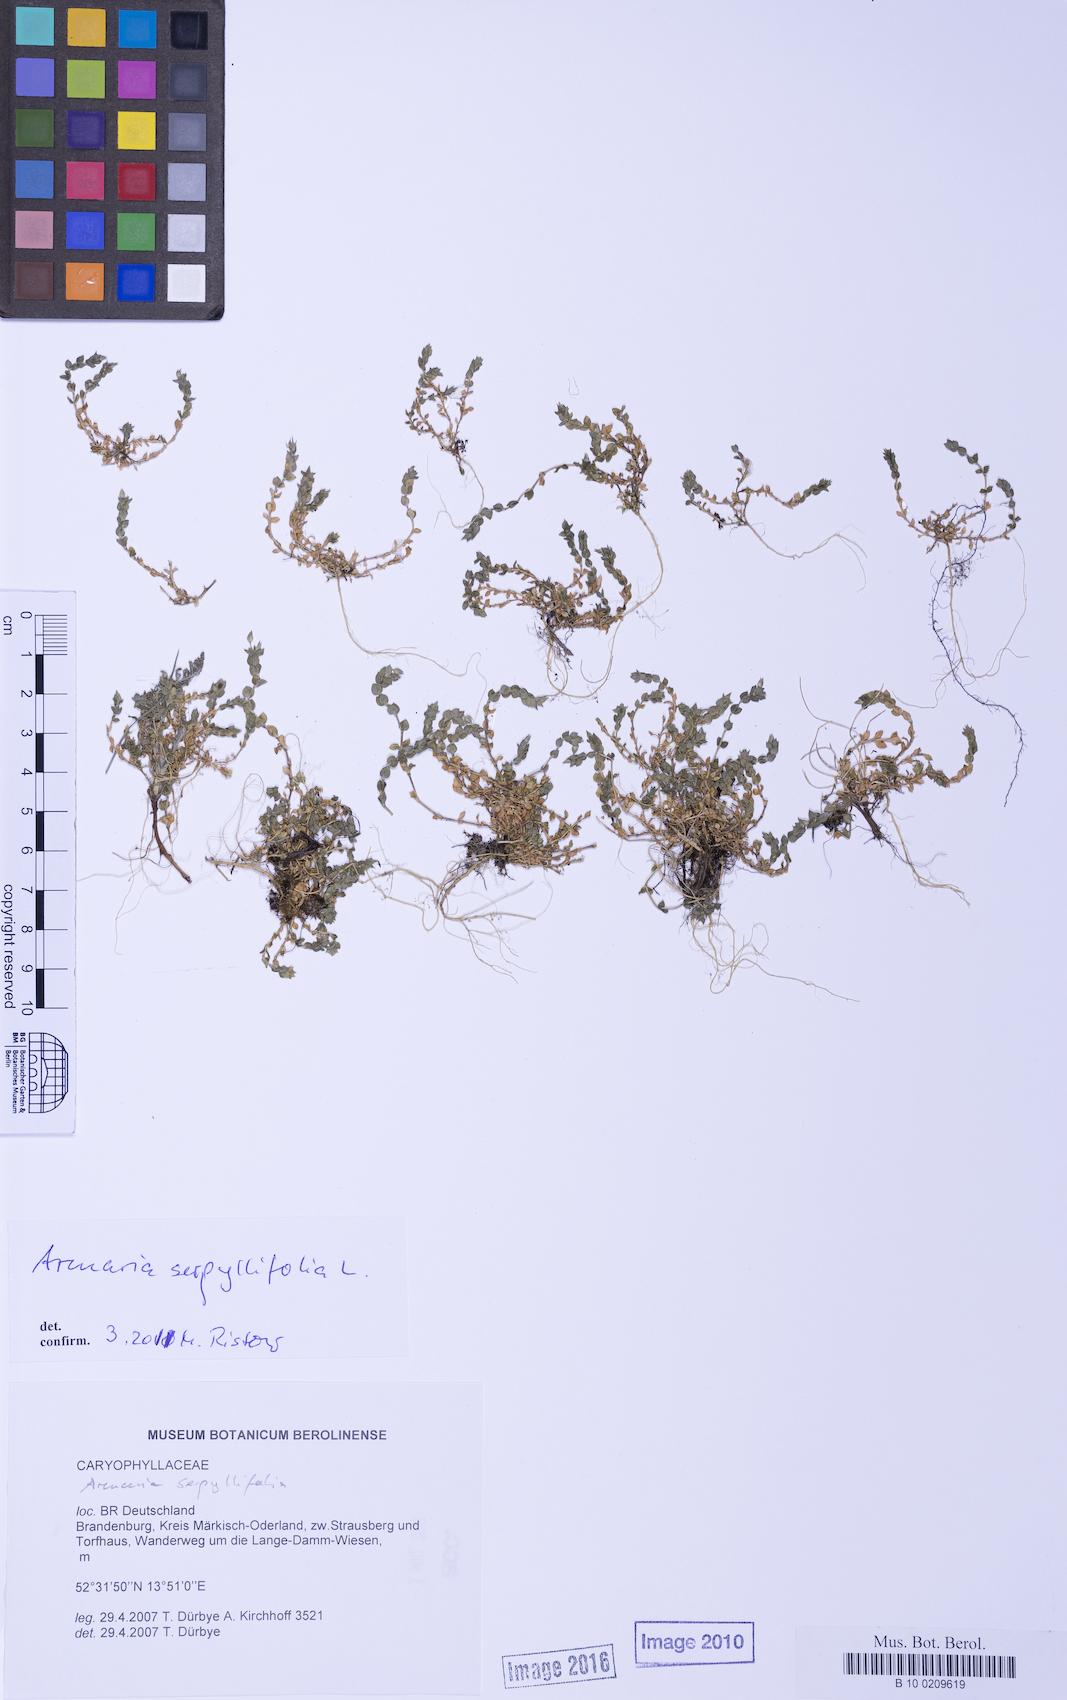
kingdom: Plantae
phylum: Tracheophyta
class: Magnoliopsida
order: Caryophyllales
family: Caryophyllaceae
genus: Arenaria
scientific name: Arenaria serpyllifolia
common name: Thyme-leaved sandwort
